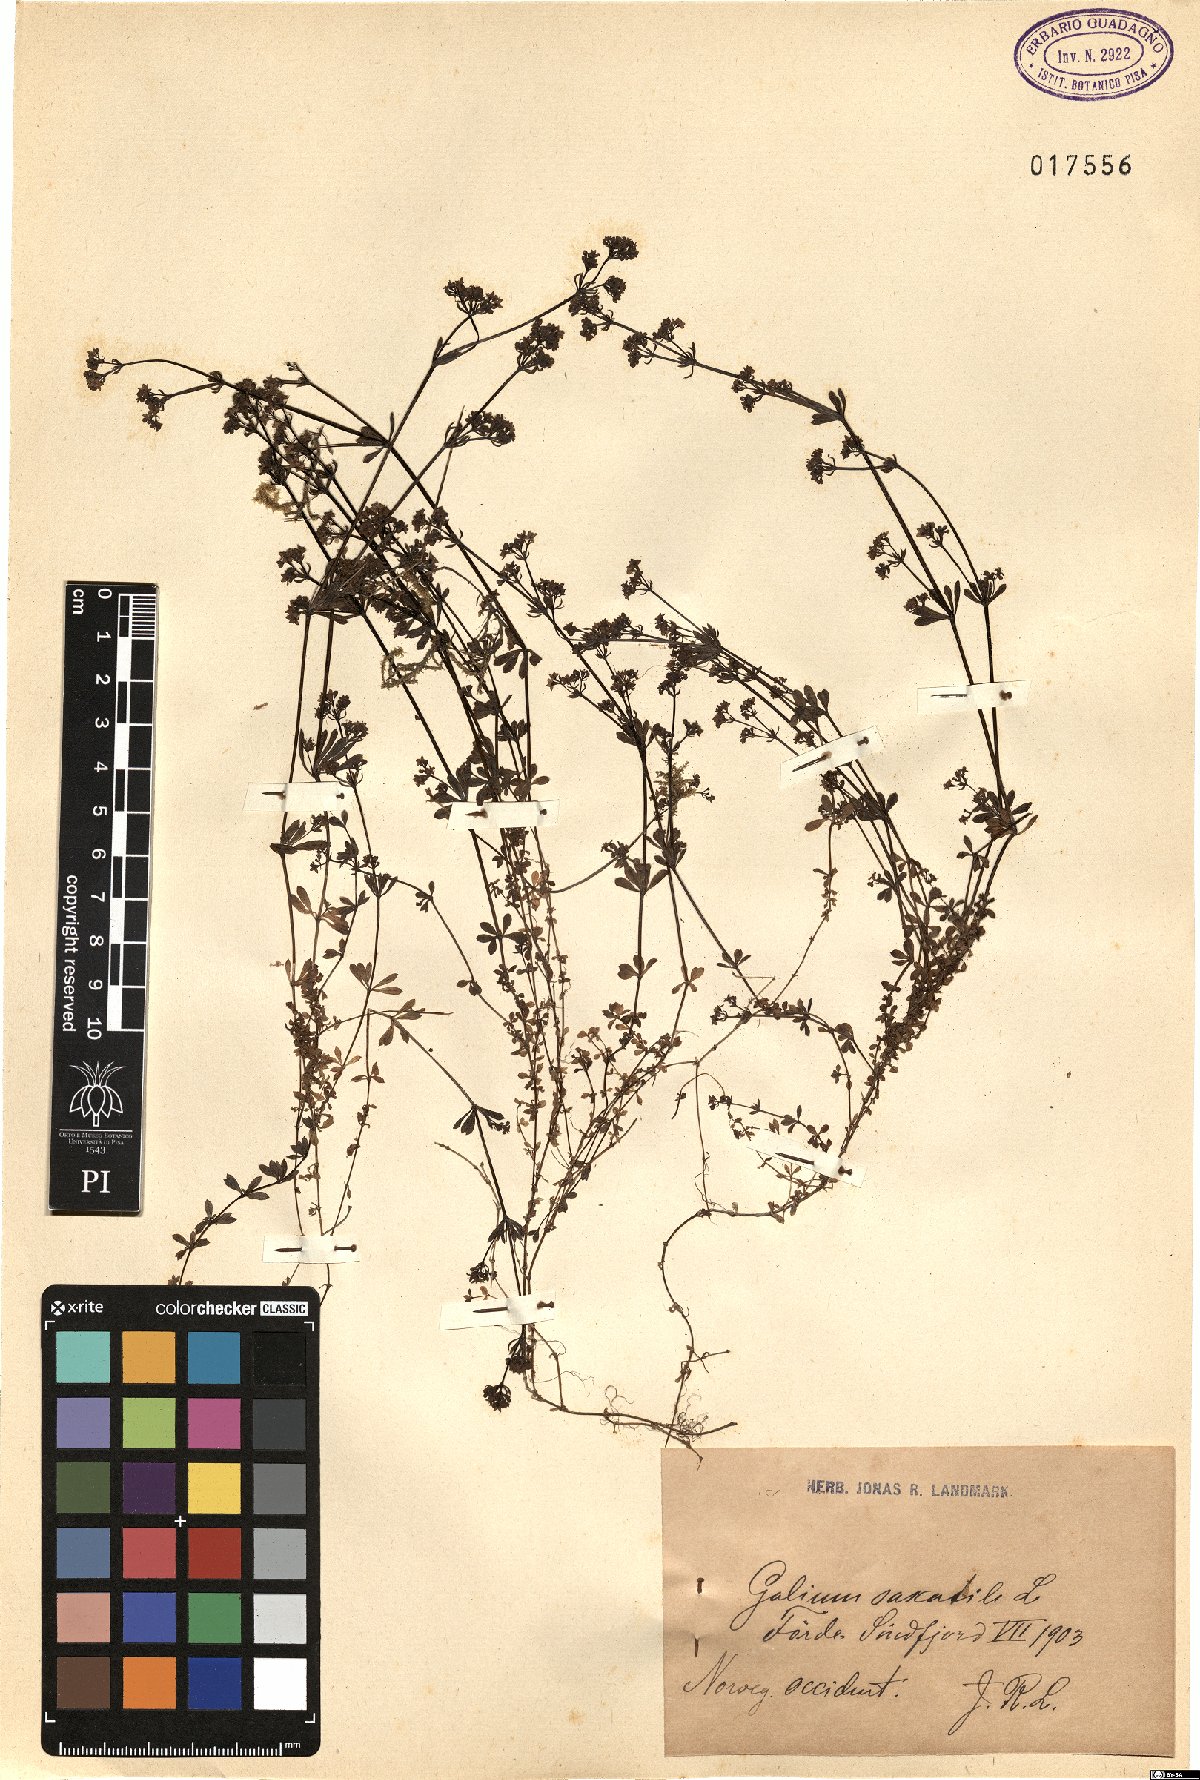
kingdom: Plantae
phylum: Tracheophyta
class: Magnoliopsida
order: Gentianales
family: Rubiaceae
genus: Galium
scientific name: Galium saxatile
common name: Heath bedstraw
